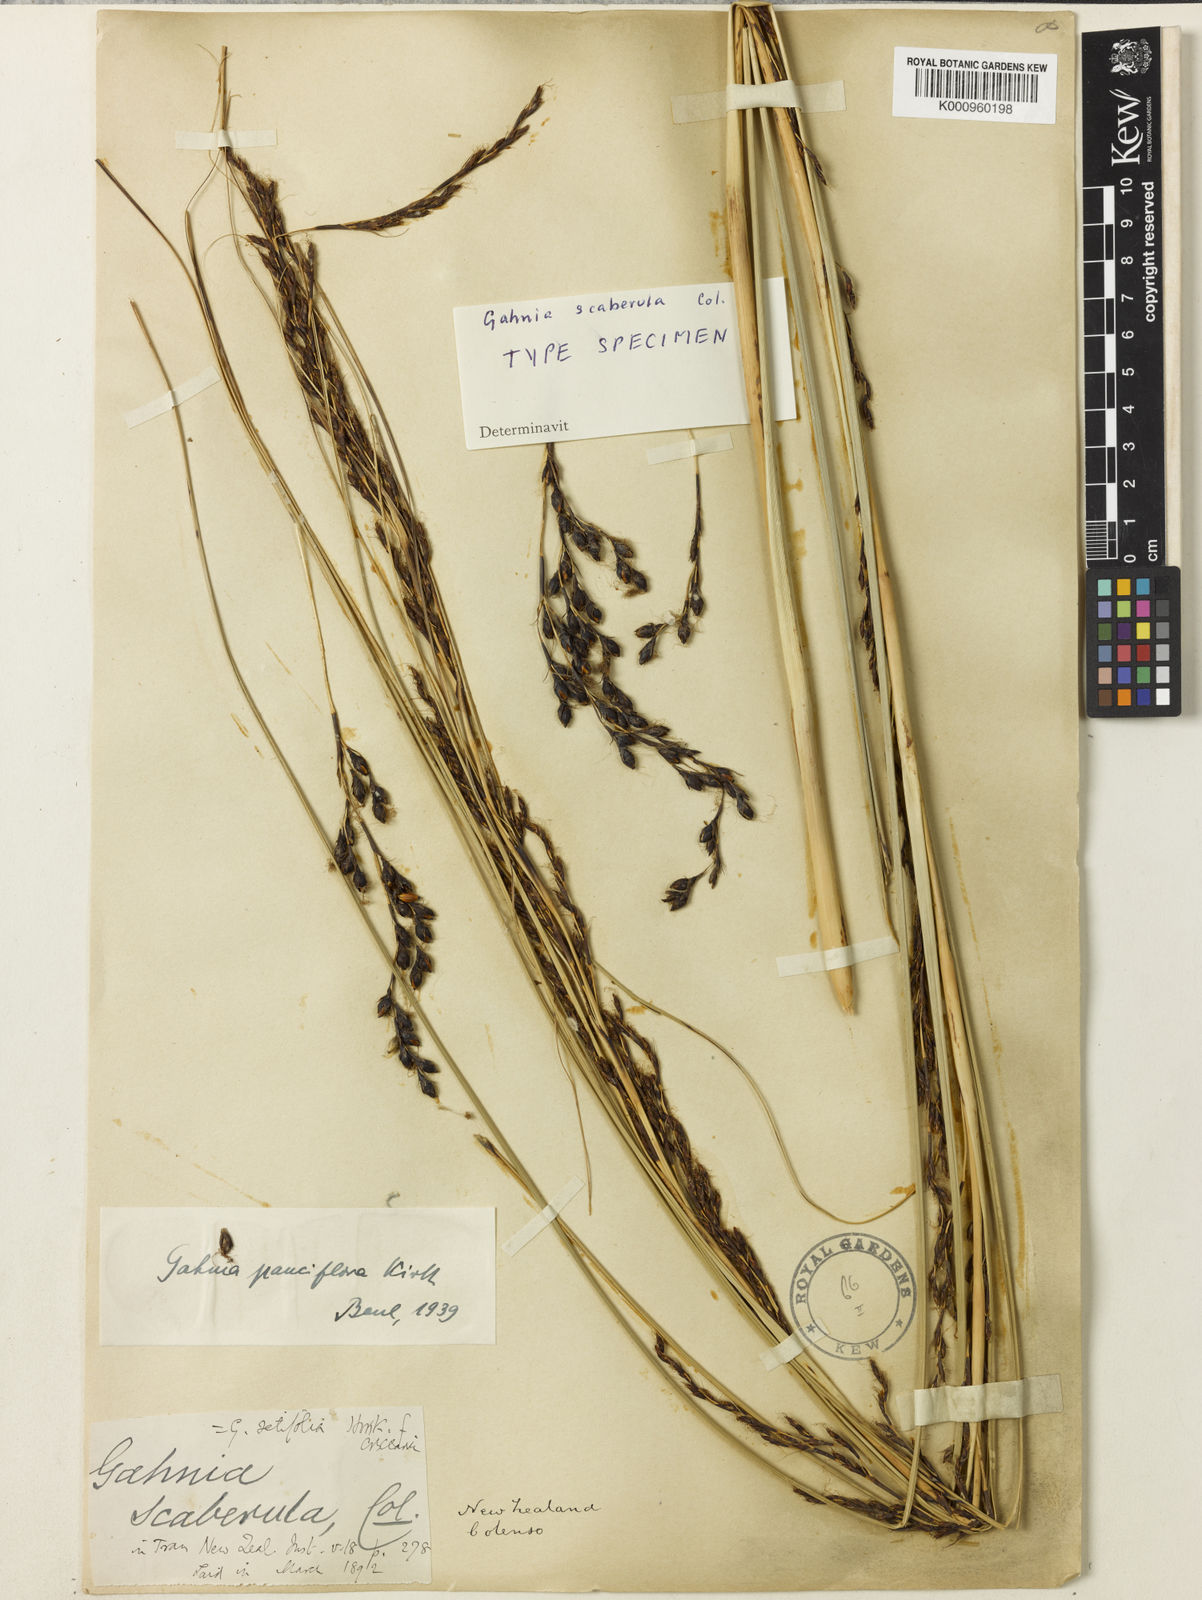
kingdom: Plantae
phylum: Tracheophyta
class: Liliopsida
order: Poales
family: Cyperaceae
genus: Gahnia
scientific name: Gahnia pauciflora
